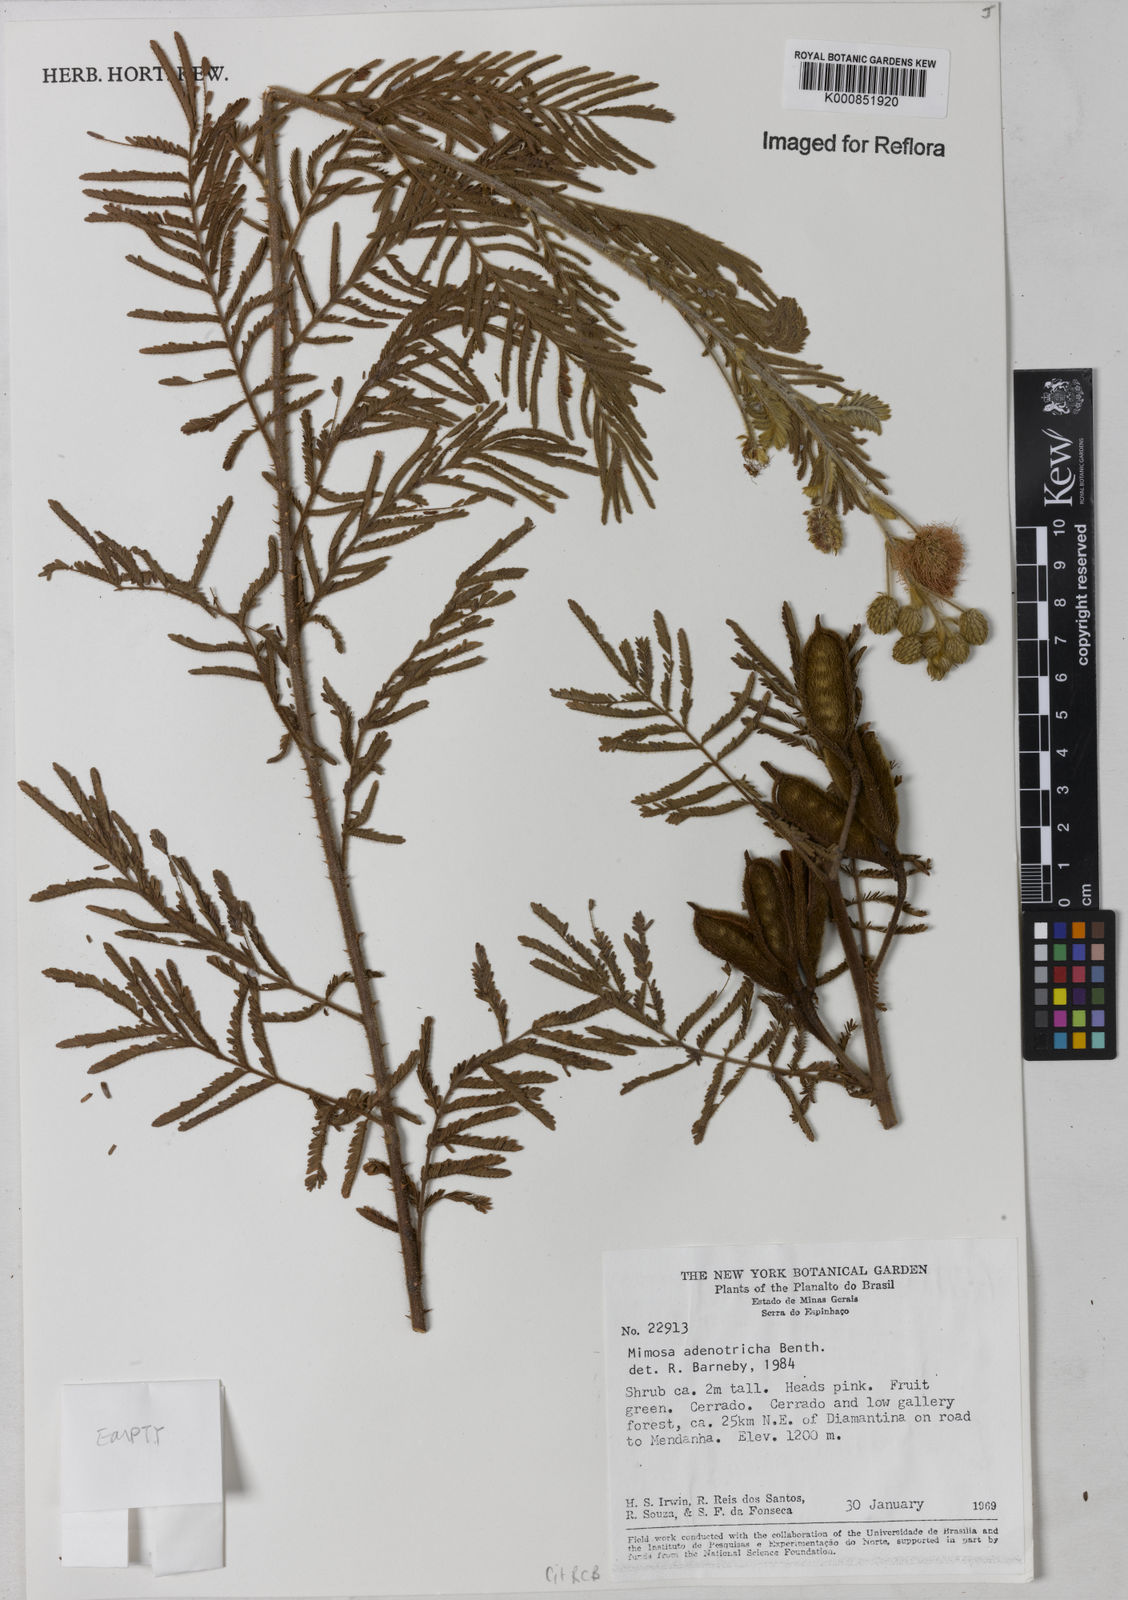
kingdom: Plantae
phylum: Tracheophyta
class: Magnoliopsida
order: Fabales
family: Fabaceae
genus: Mimosa
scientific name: Mimosa adenotricha
